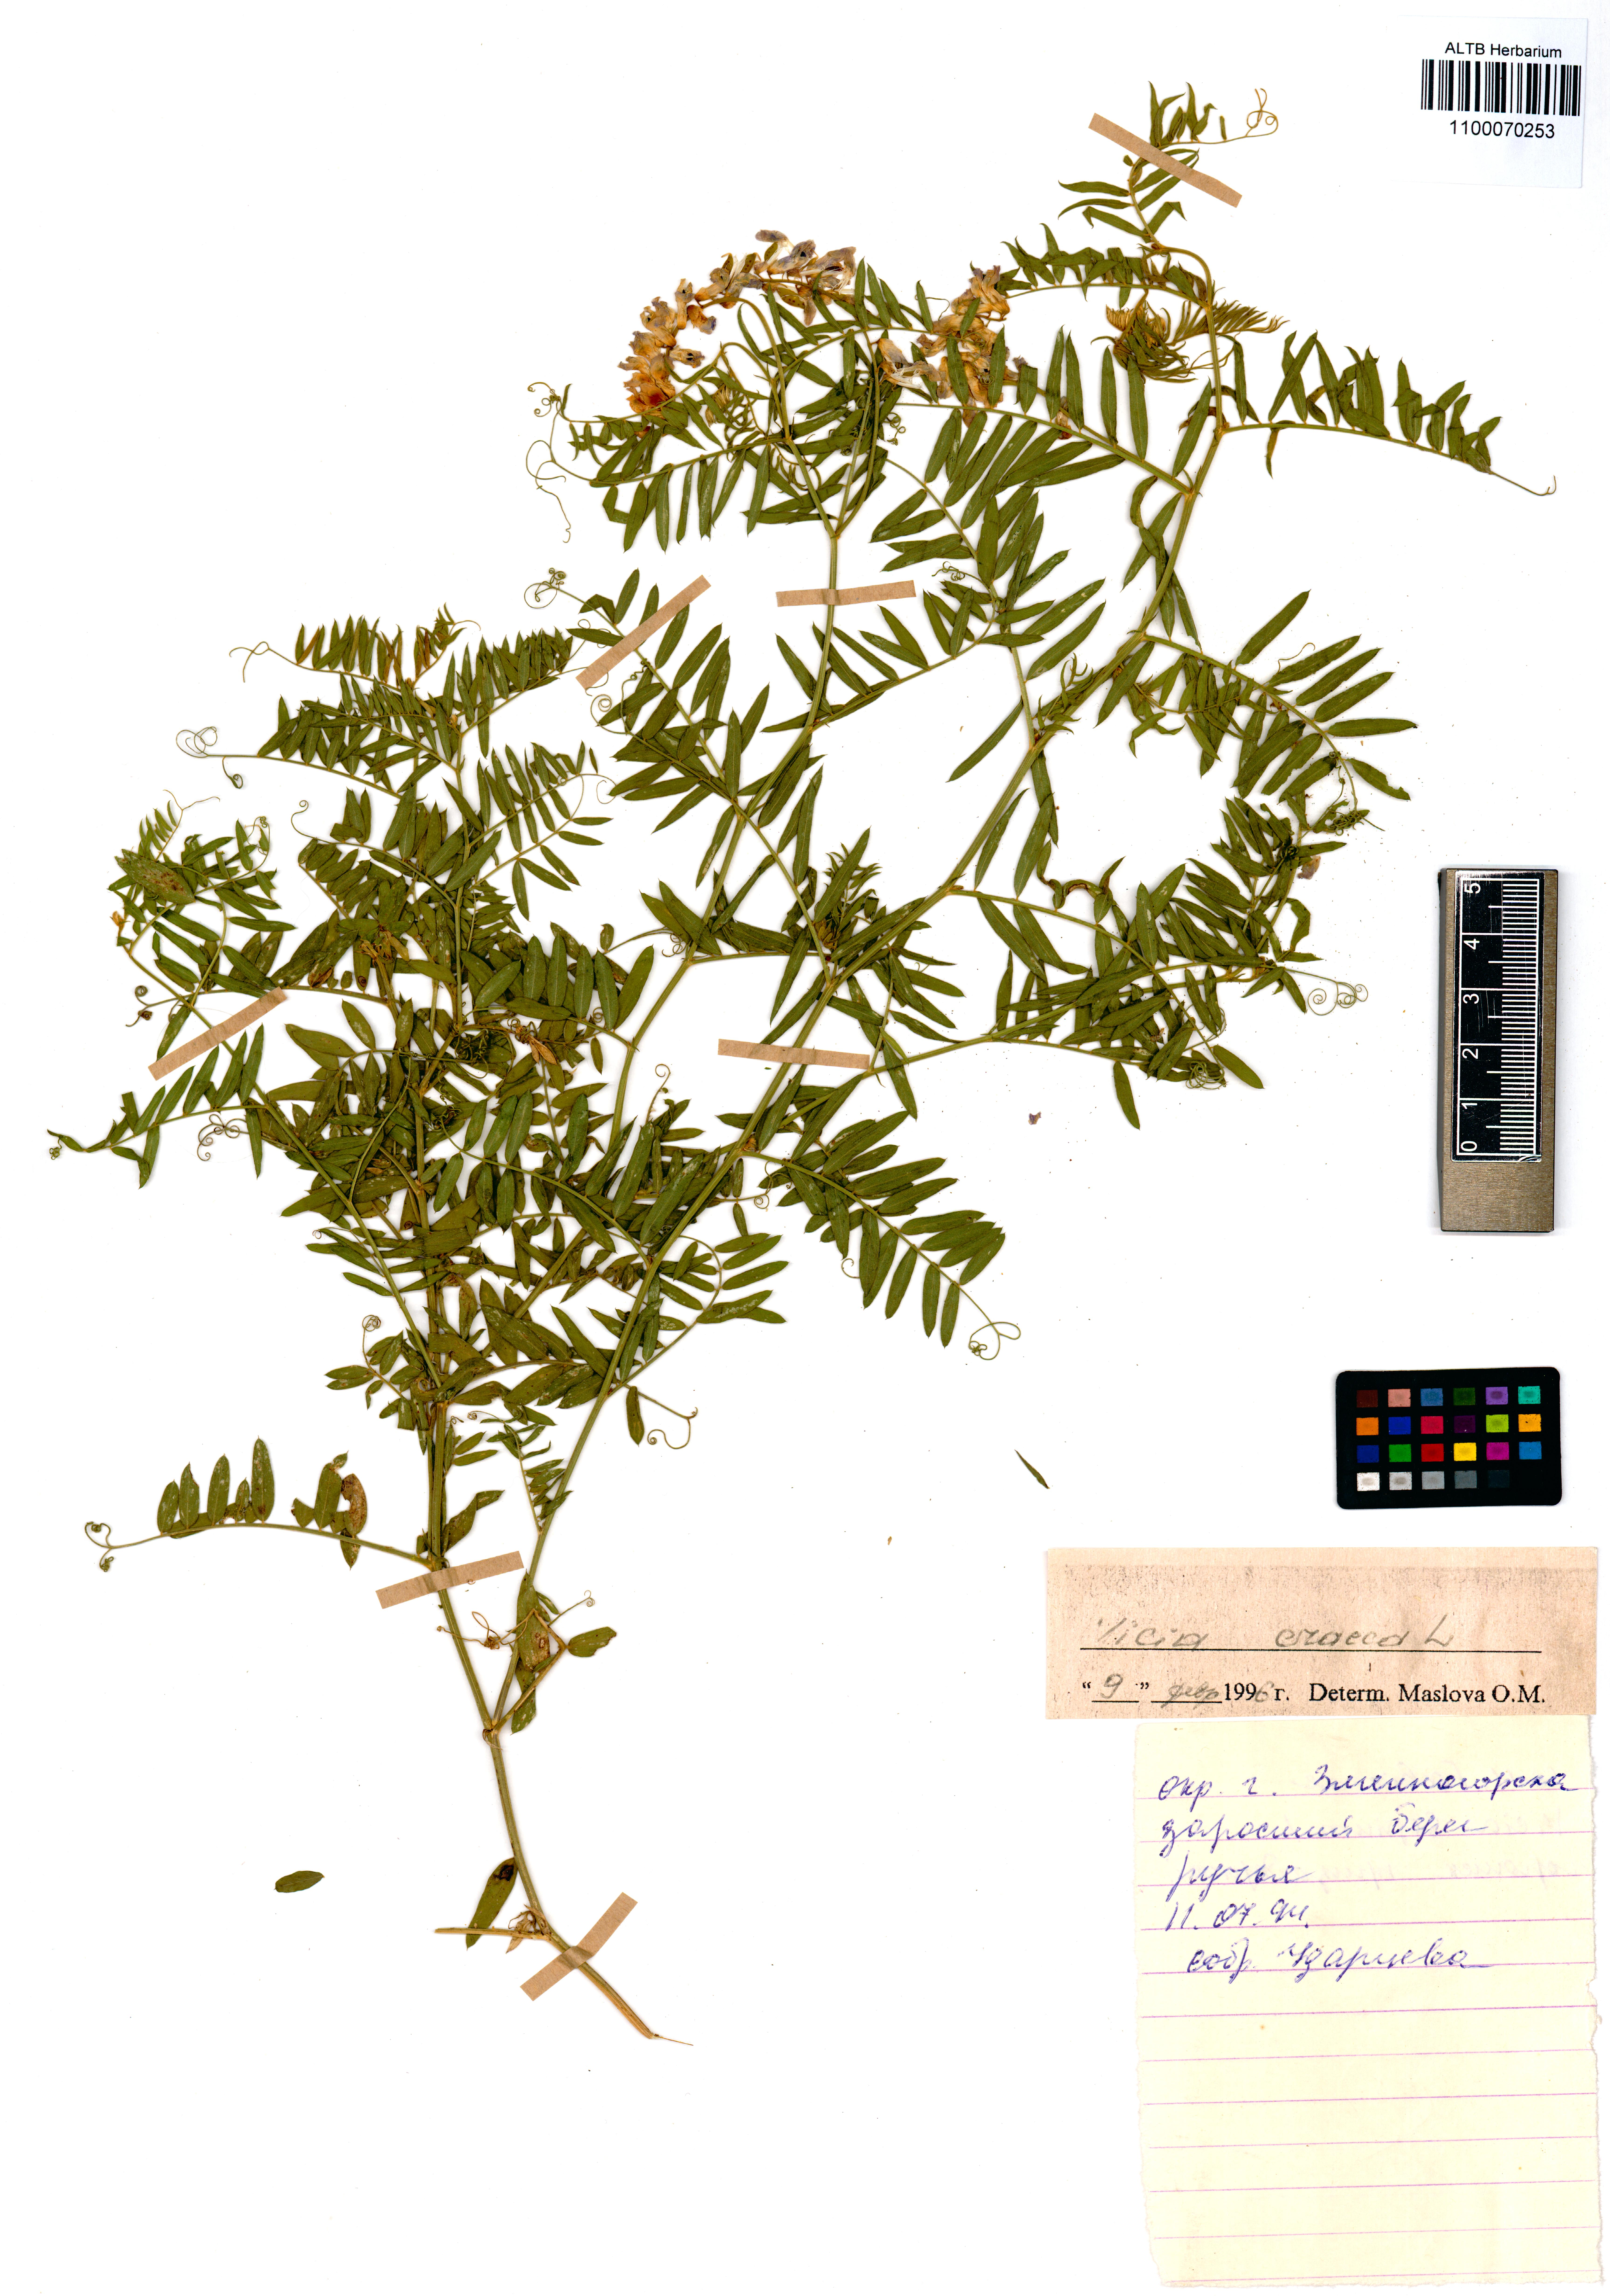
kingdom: Plantae
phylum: Tracheophyta
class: Magnoliopsida
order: Fabales
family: Fabaceae
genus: Vicia
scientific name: Vicia cracca
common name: Bird vetch
